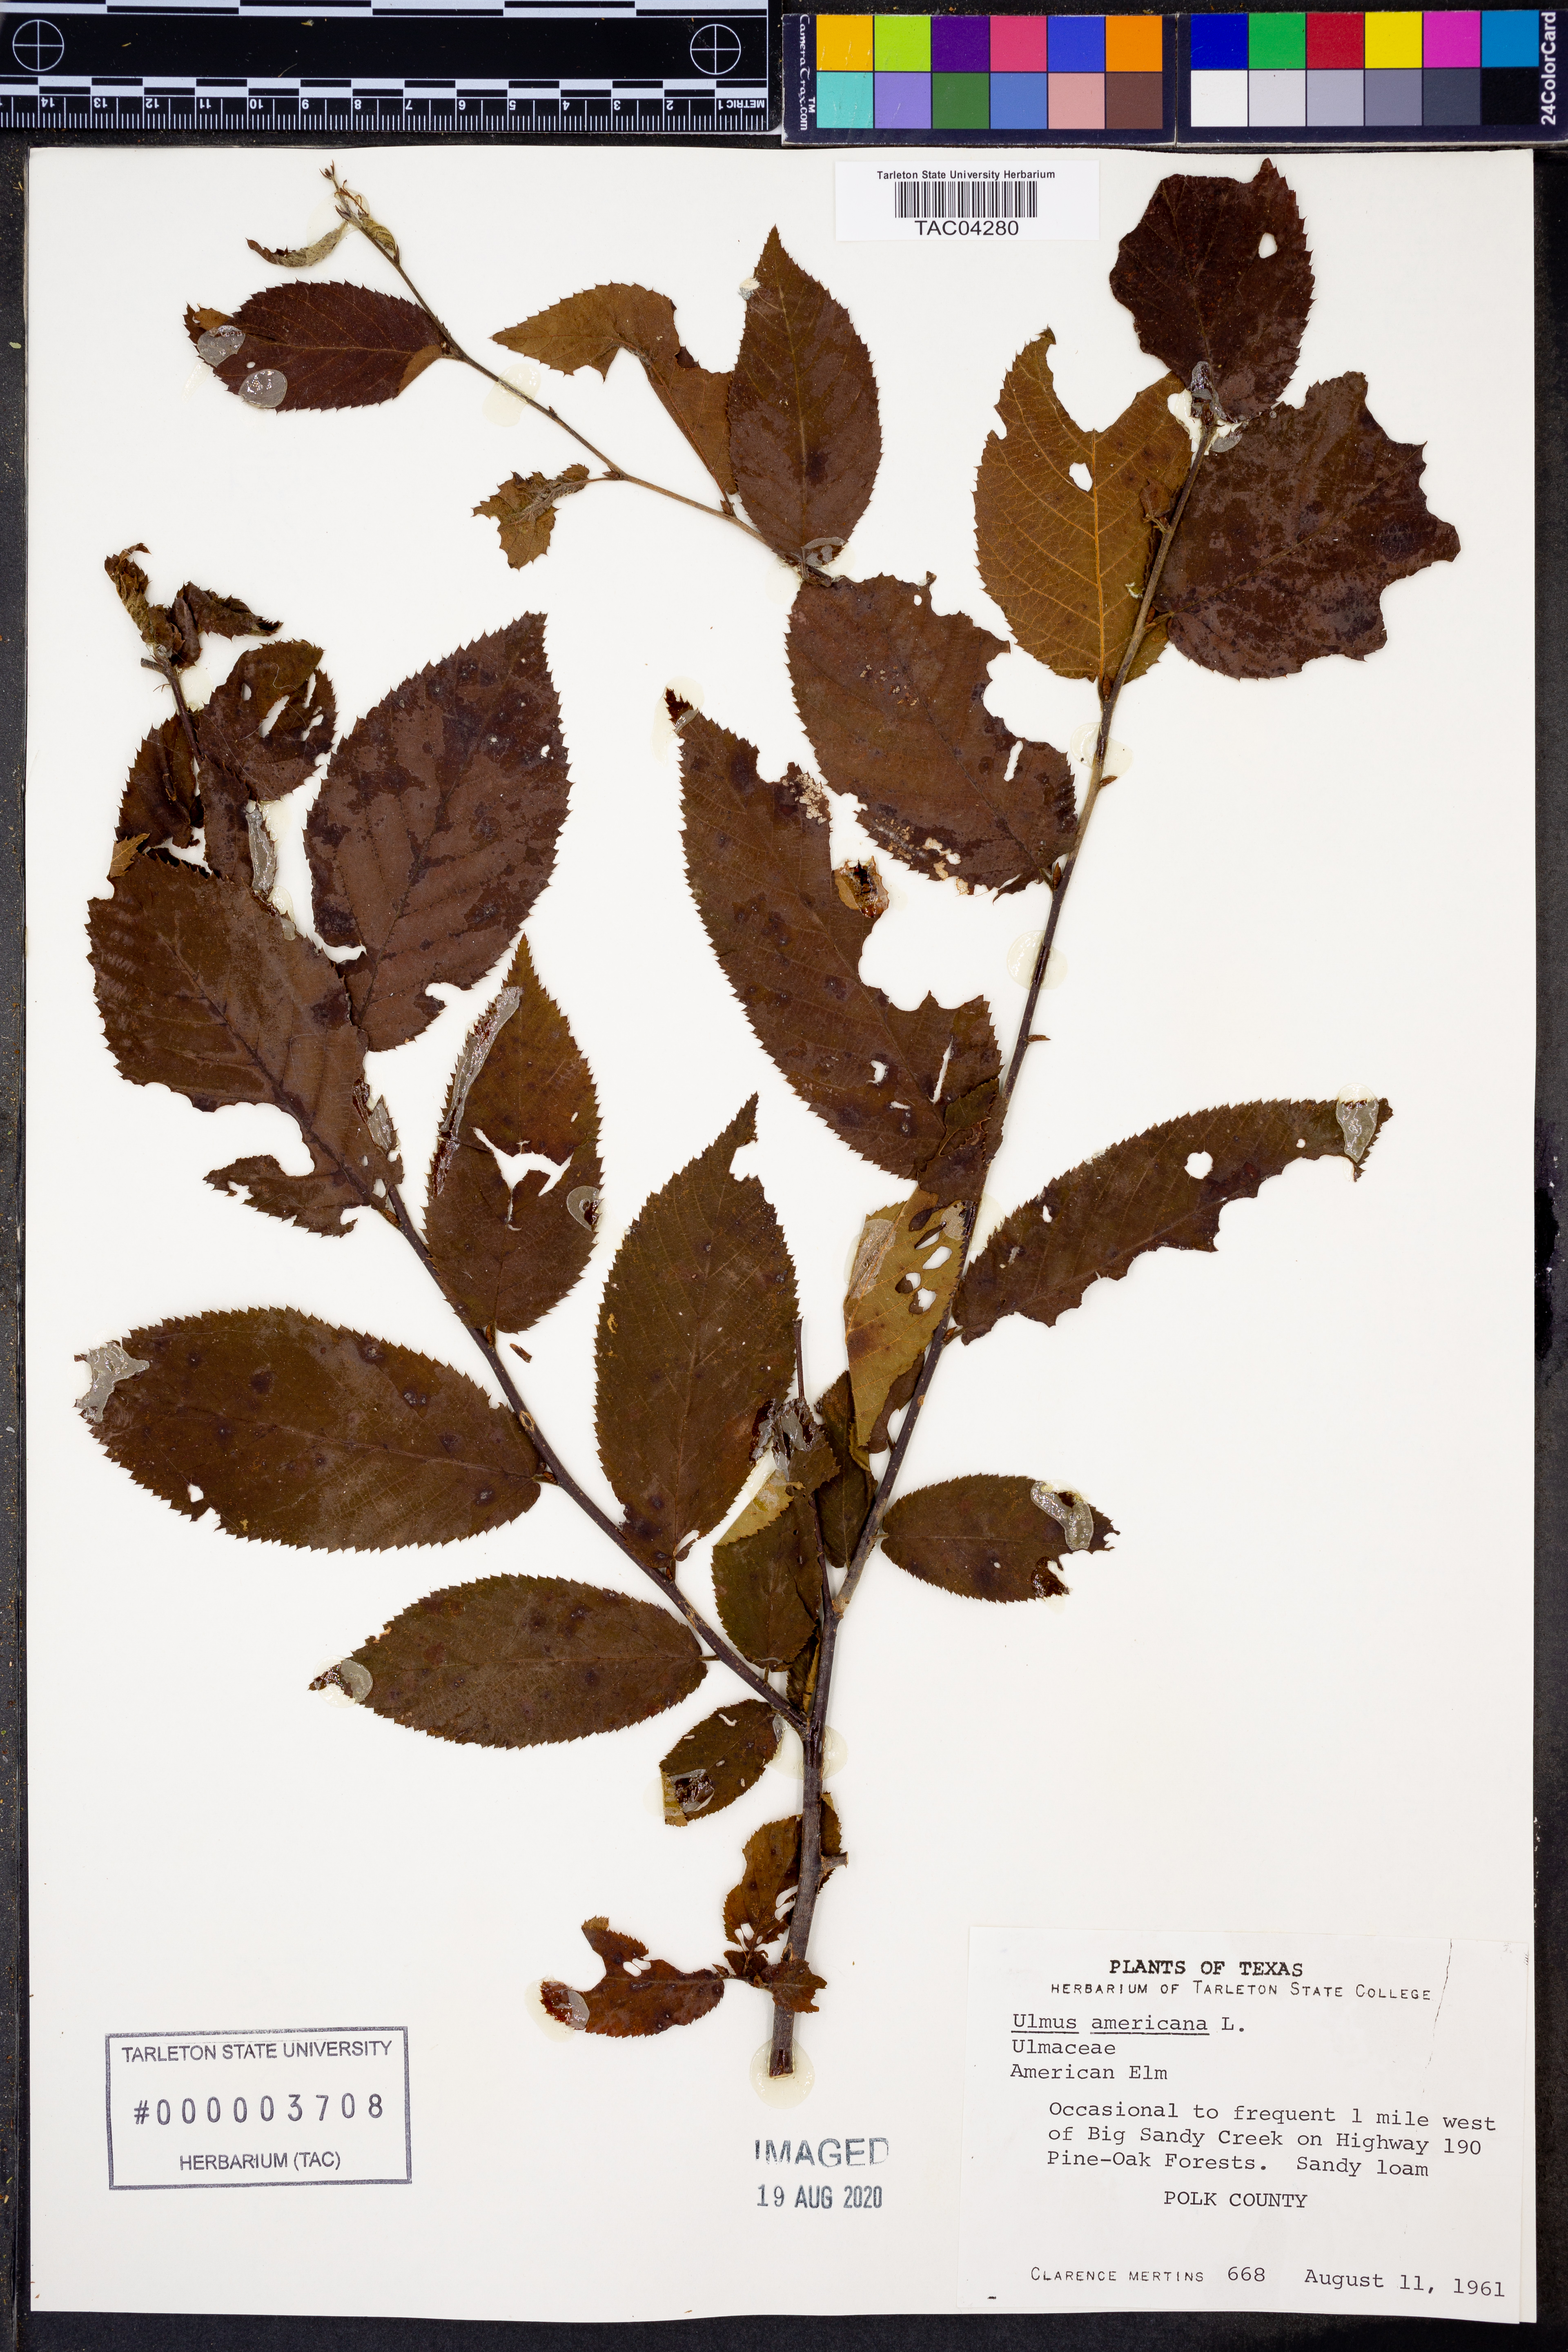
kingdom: Plantae
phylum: Tracheophyta
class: Magnoliopsida
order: Rosales
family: Ulmaceae
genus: Ulmus
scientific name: Ulmus americana
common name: American elm
